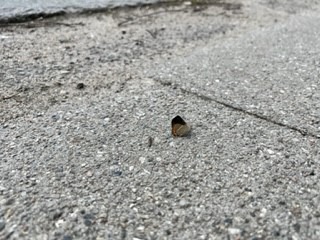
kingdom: Animalia
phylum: Arthropoda
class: Insecta
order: Lepidoptera
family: Lycaenidae
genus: Satyrium
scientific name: Satyrium w-album
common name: Det hvide W
